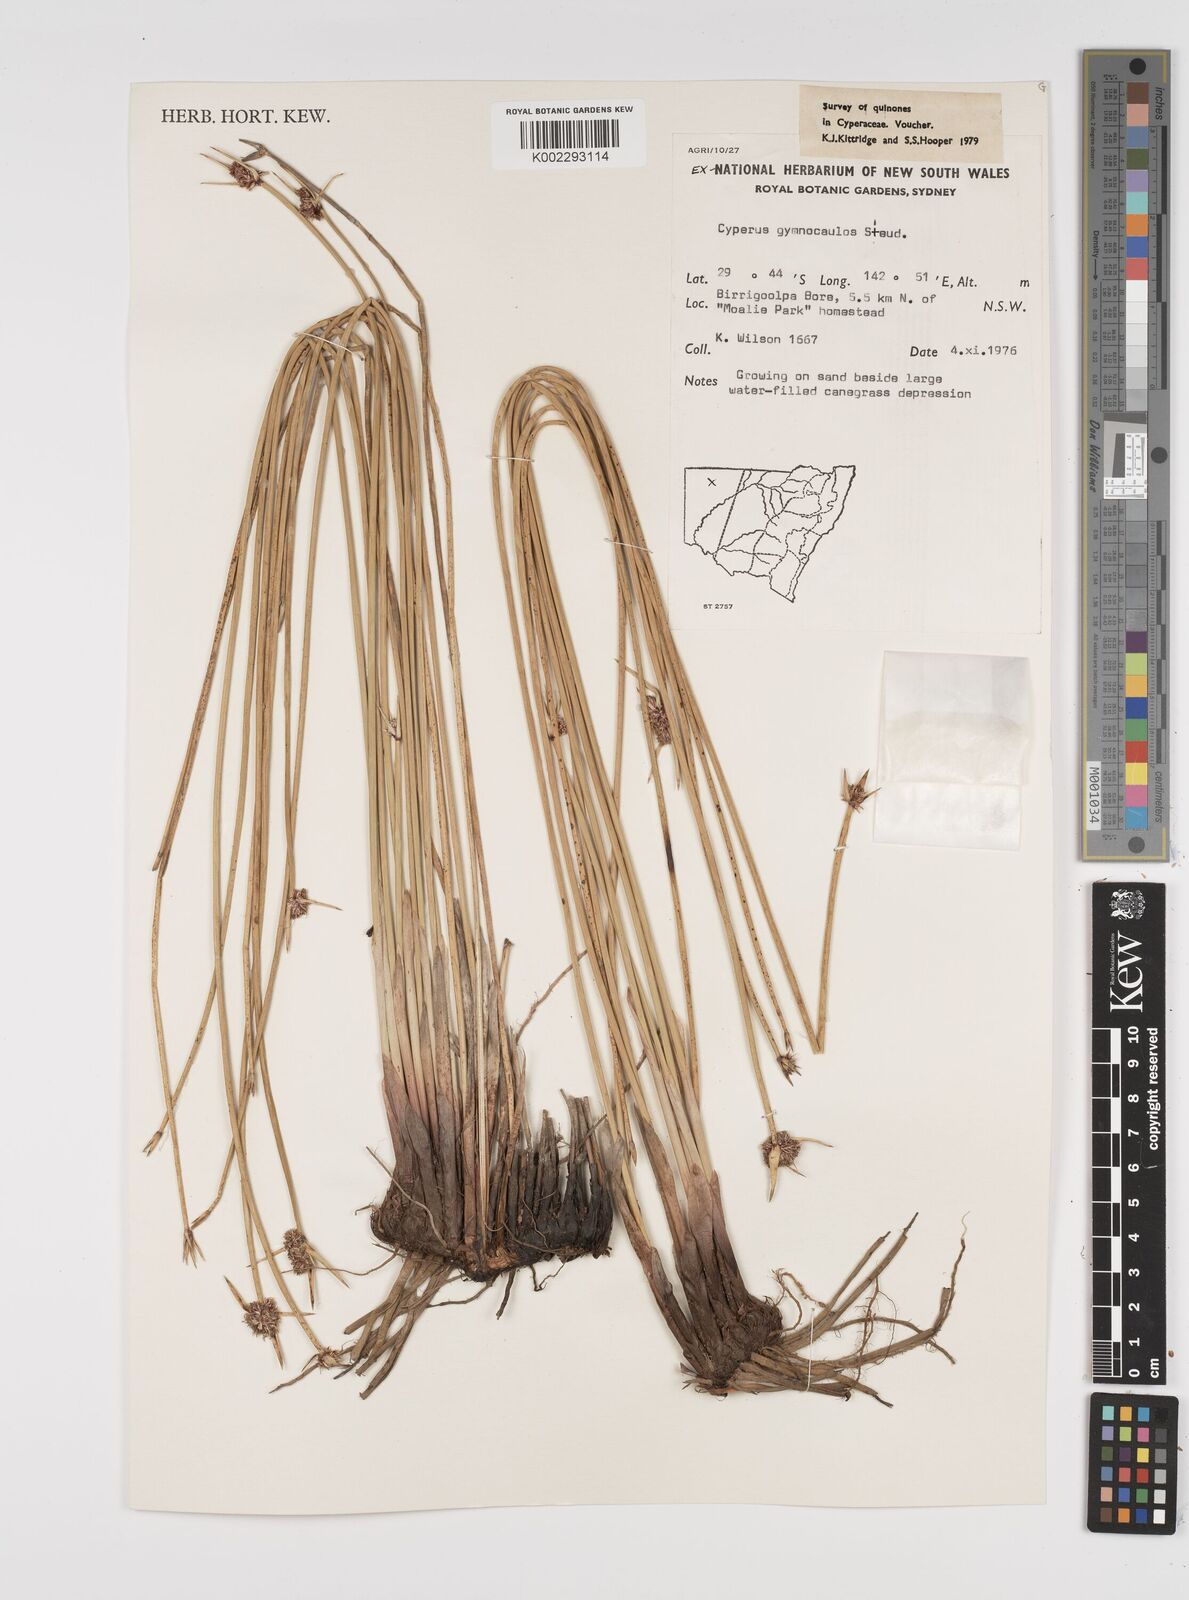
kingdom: Plantae
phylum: Tracheophyta
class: Liliopsida
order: Poales
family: Cyperaceae
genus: Cyperus
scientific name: Cyperus gymnocaulos
